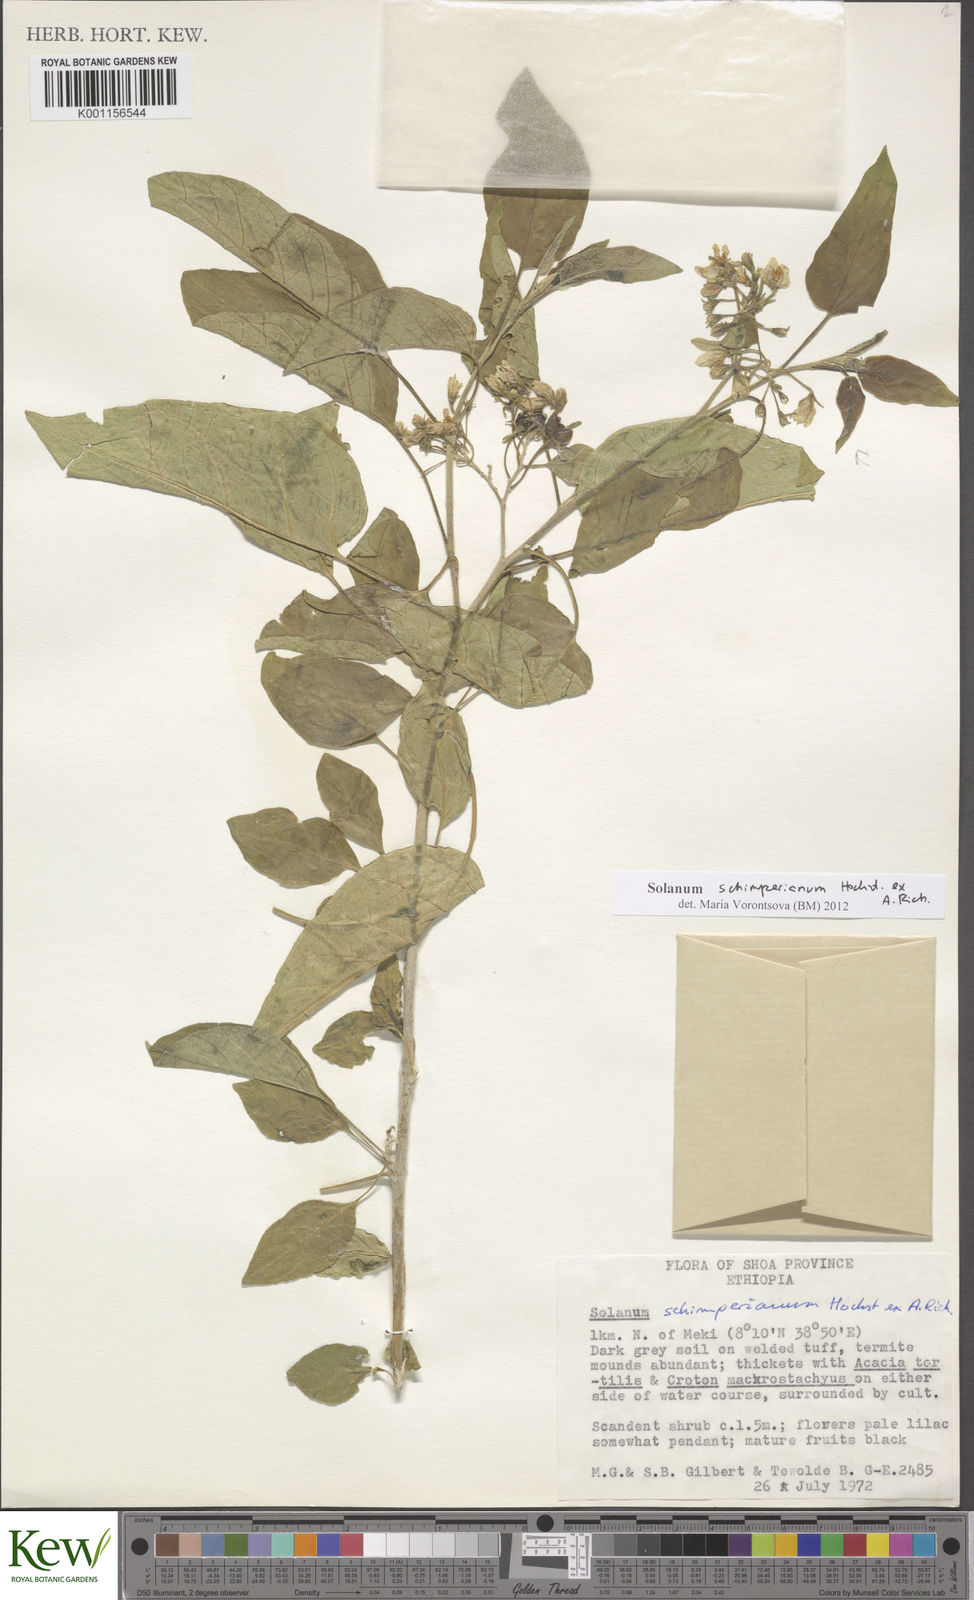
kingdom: Plantae
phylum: Tracheophyta
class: Magnoliopsida
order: Solanales
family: Solanaceae
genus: Solanum
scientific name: Solanum
